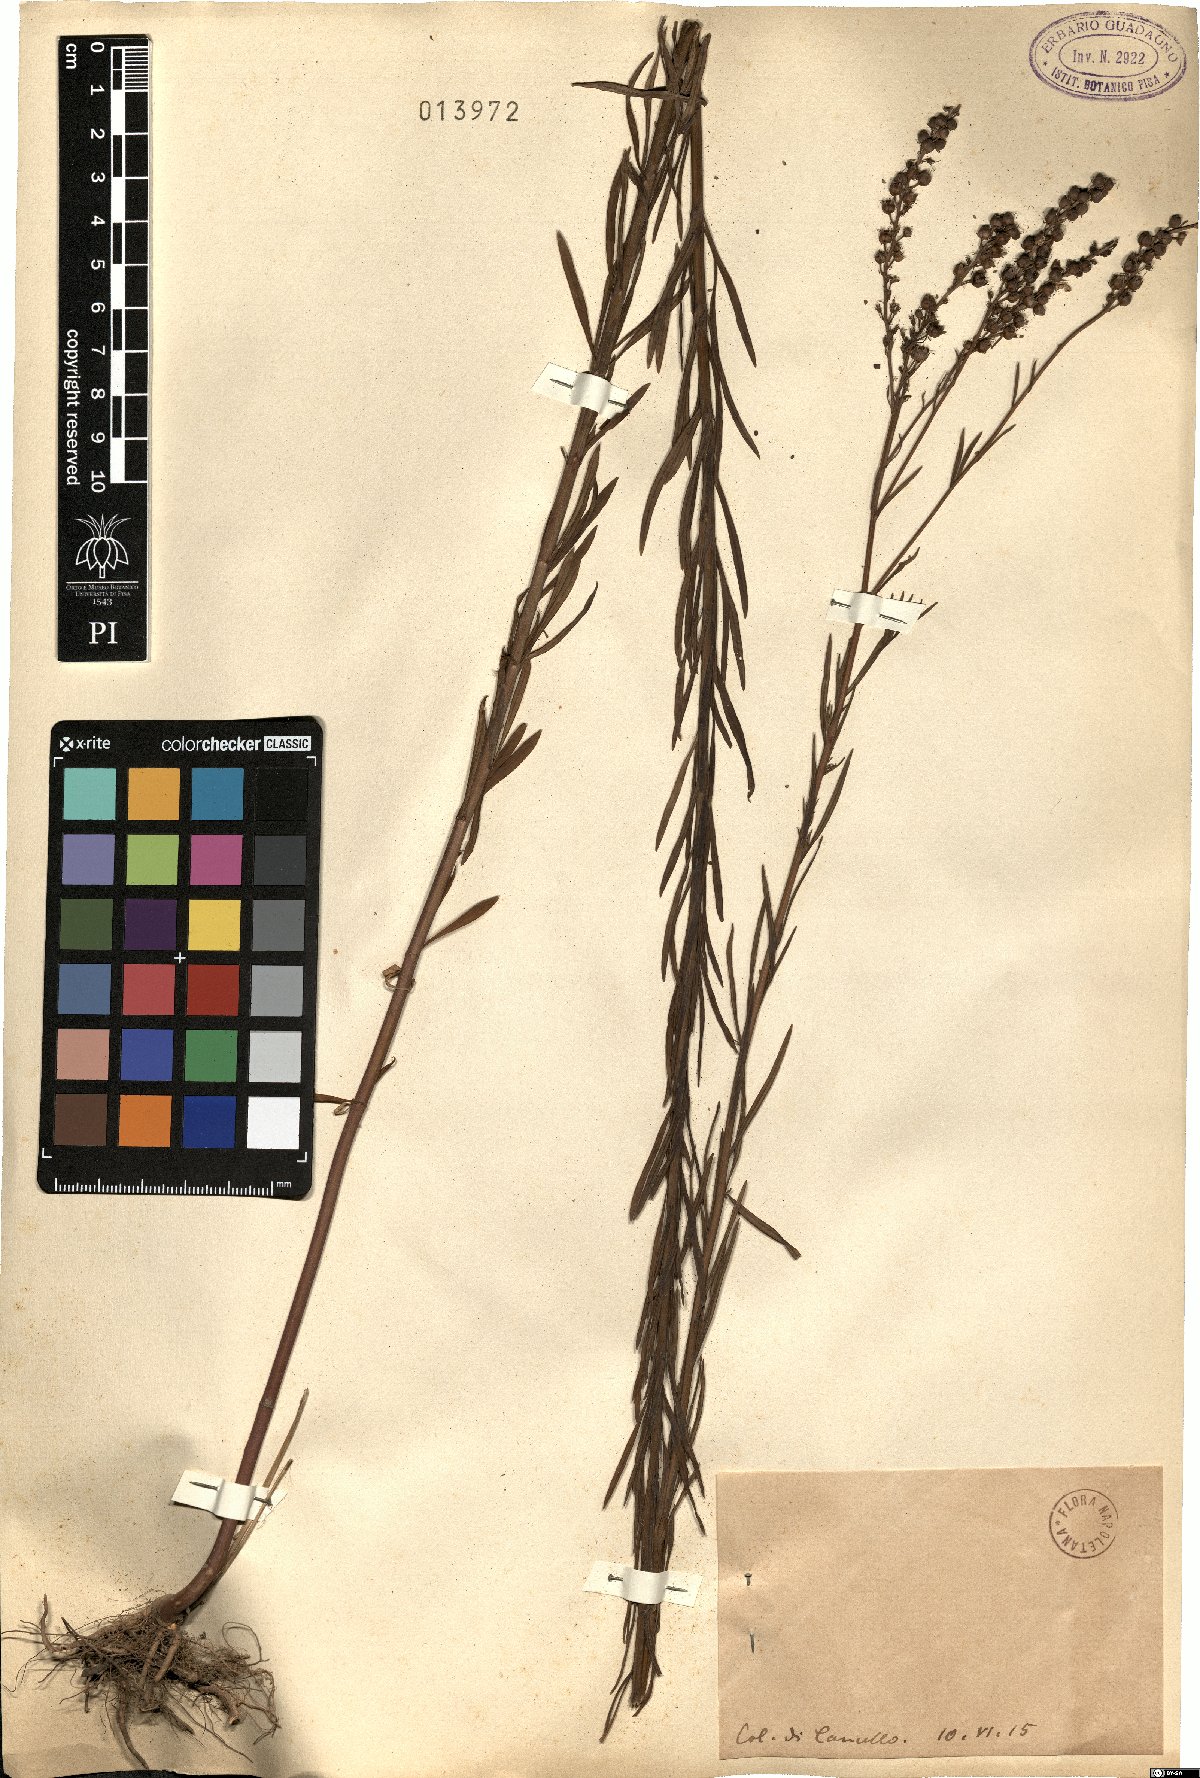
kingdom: Plantae
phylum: Tracheophyta
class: Magnoliopsida
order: Lamiales
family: Plantaginaceae
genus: Linaria
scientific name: Linaria
